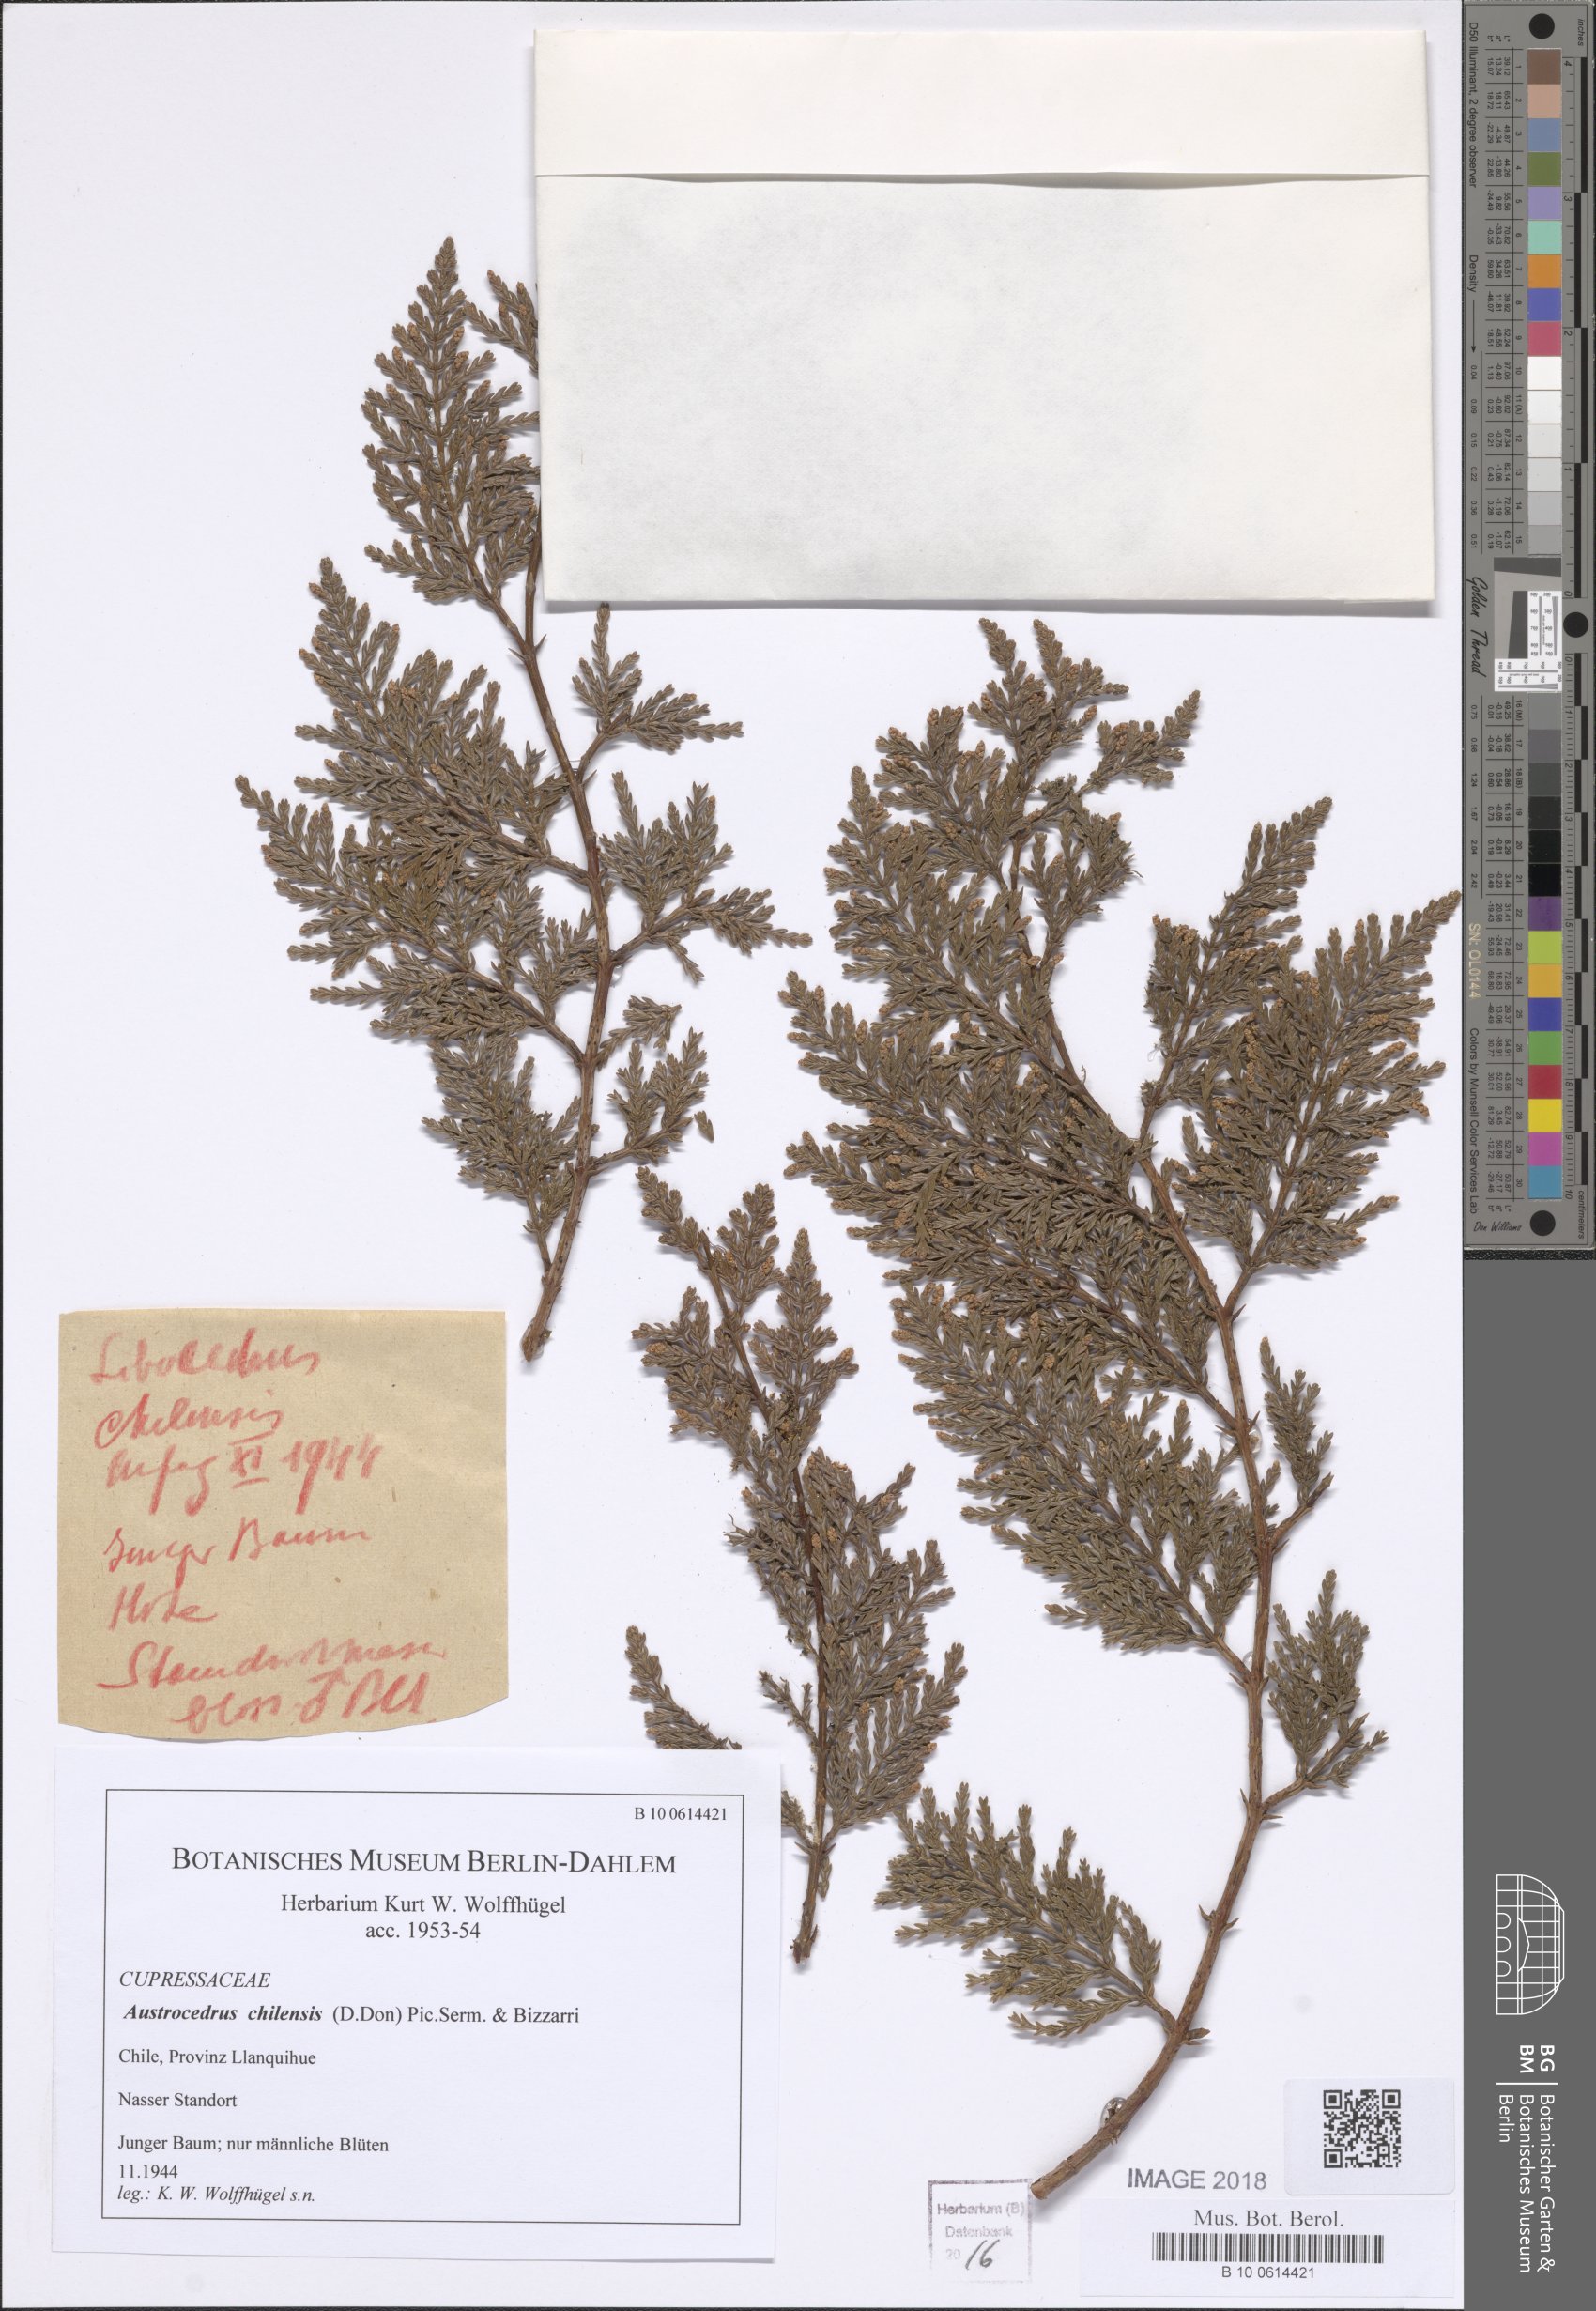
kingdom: Plantae
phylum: Tracheophyta
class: Pinopsida
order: Pinales
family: Cupressaceae
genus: Austrocedrus
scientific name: Austrocedrus chilensis
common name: Chilean incense-cedar
